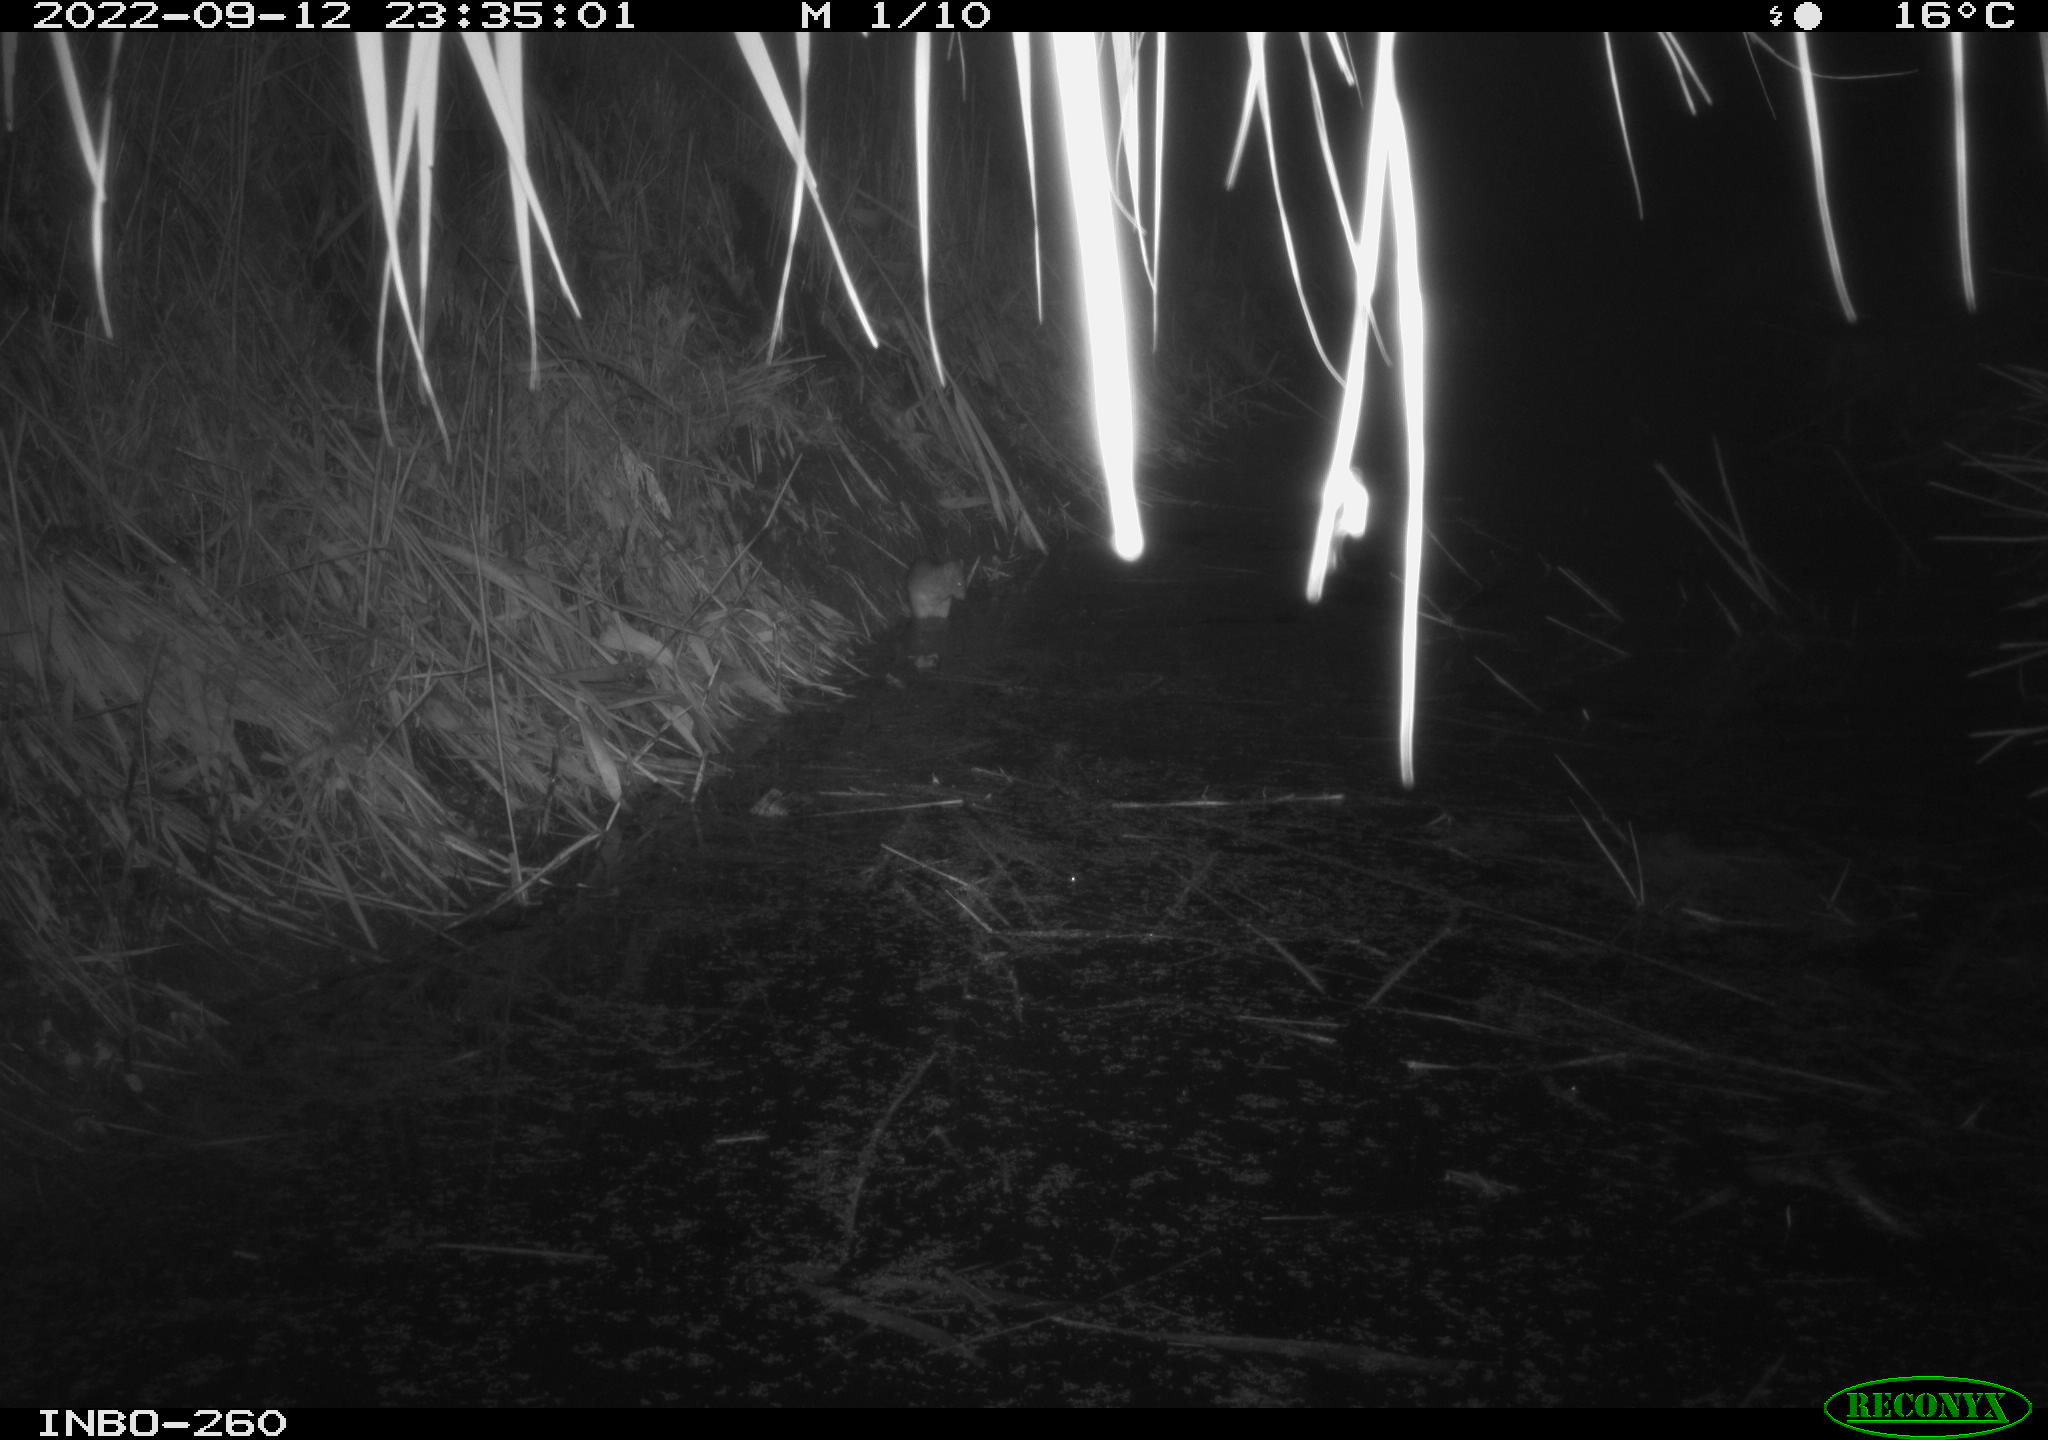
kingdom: Animalia
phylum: Chordata
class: Mammalia
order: Rodentia
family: Muridae
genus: Rattus
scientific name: Rattus norvegicus
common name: Brown rat
